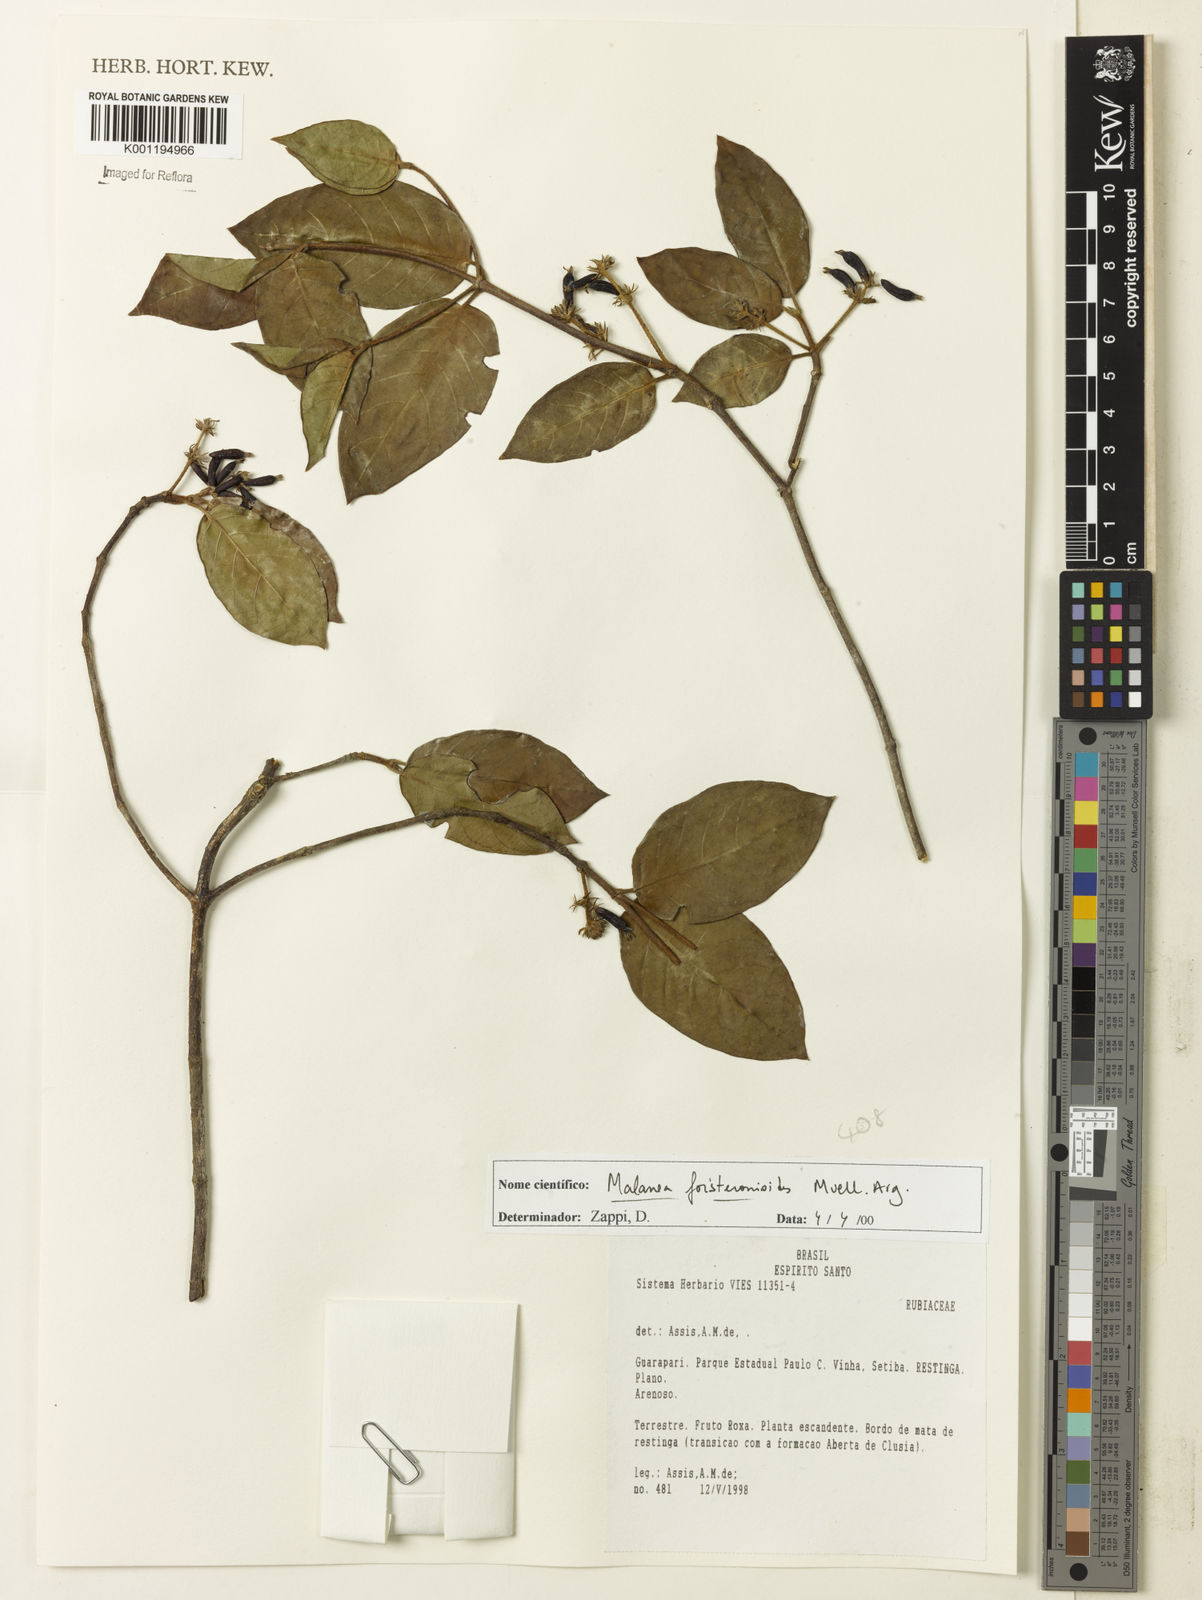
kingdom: Plantae
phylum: Tracheophyta
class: Magnoliopsida
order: Gentianales
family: Rubiaceae
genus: Malanea
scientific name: Malanea
